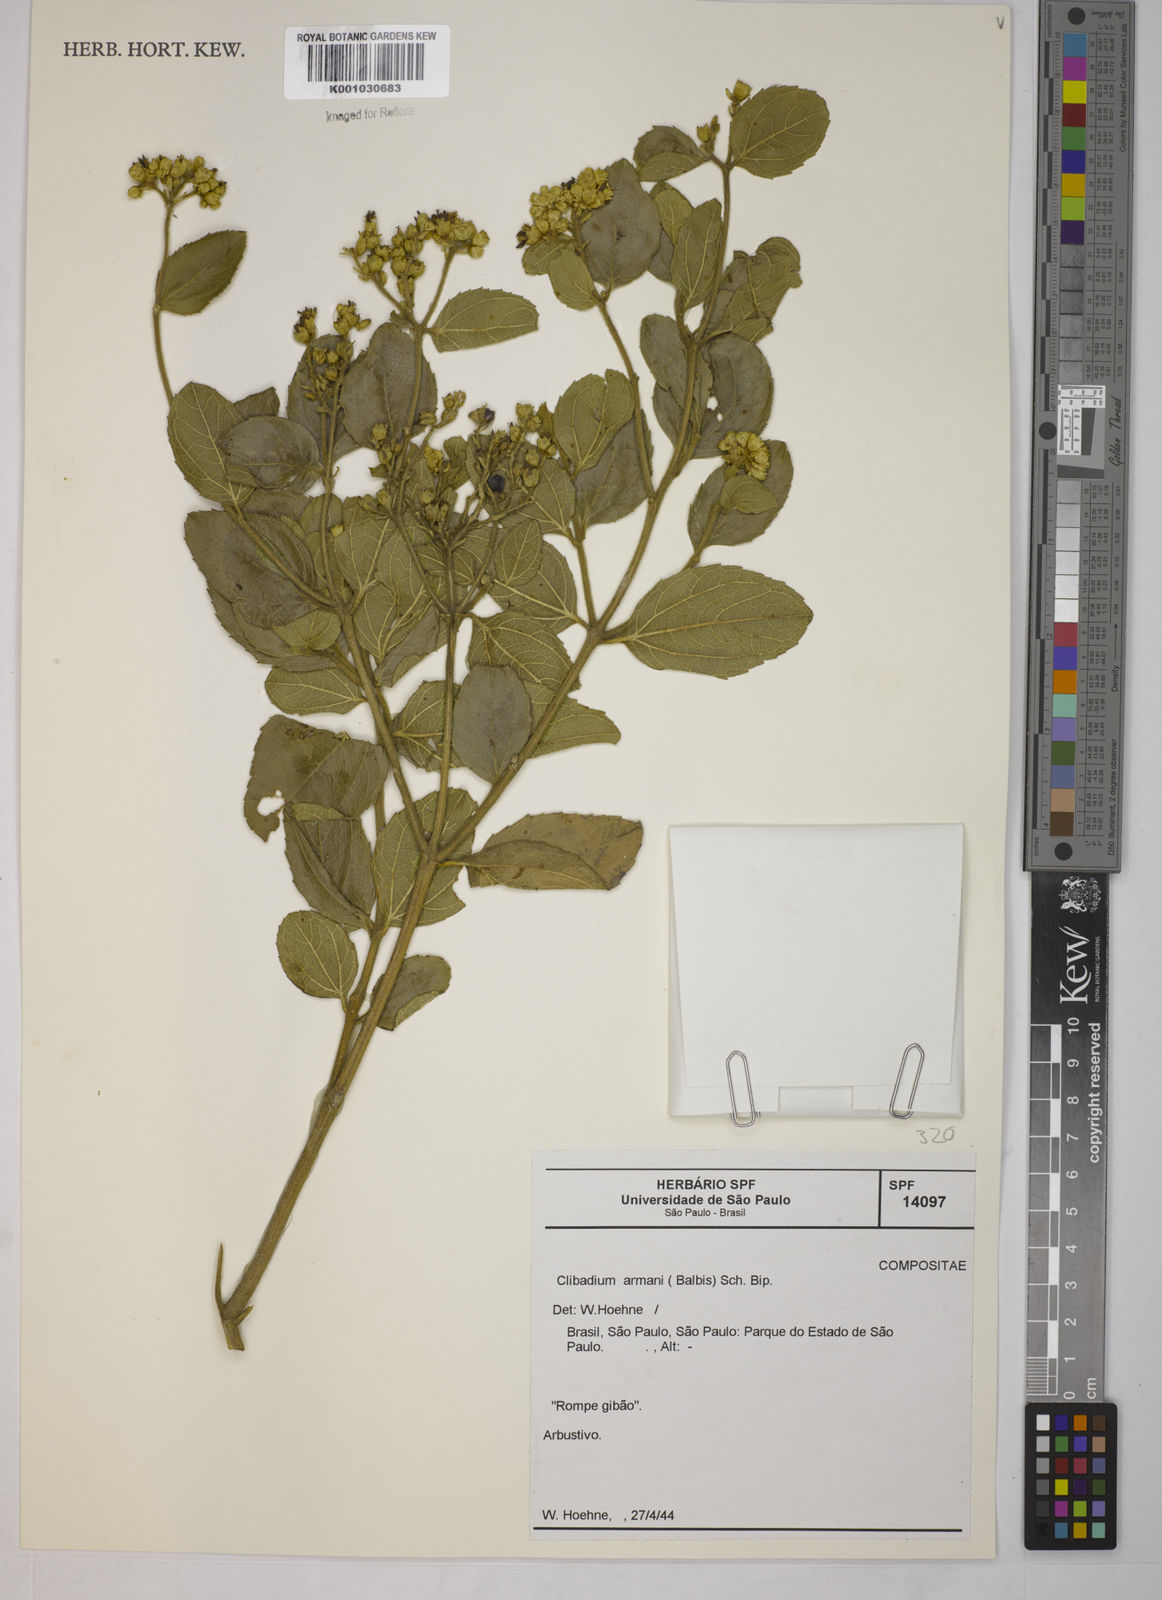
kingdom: Plantae
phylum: Tracheophyta
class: Magnoliopsida
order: Asterales
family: Asteraceae
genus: Clibadium
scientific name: Clibadium armanii
